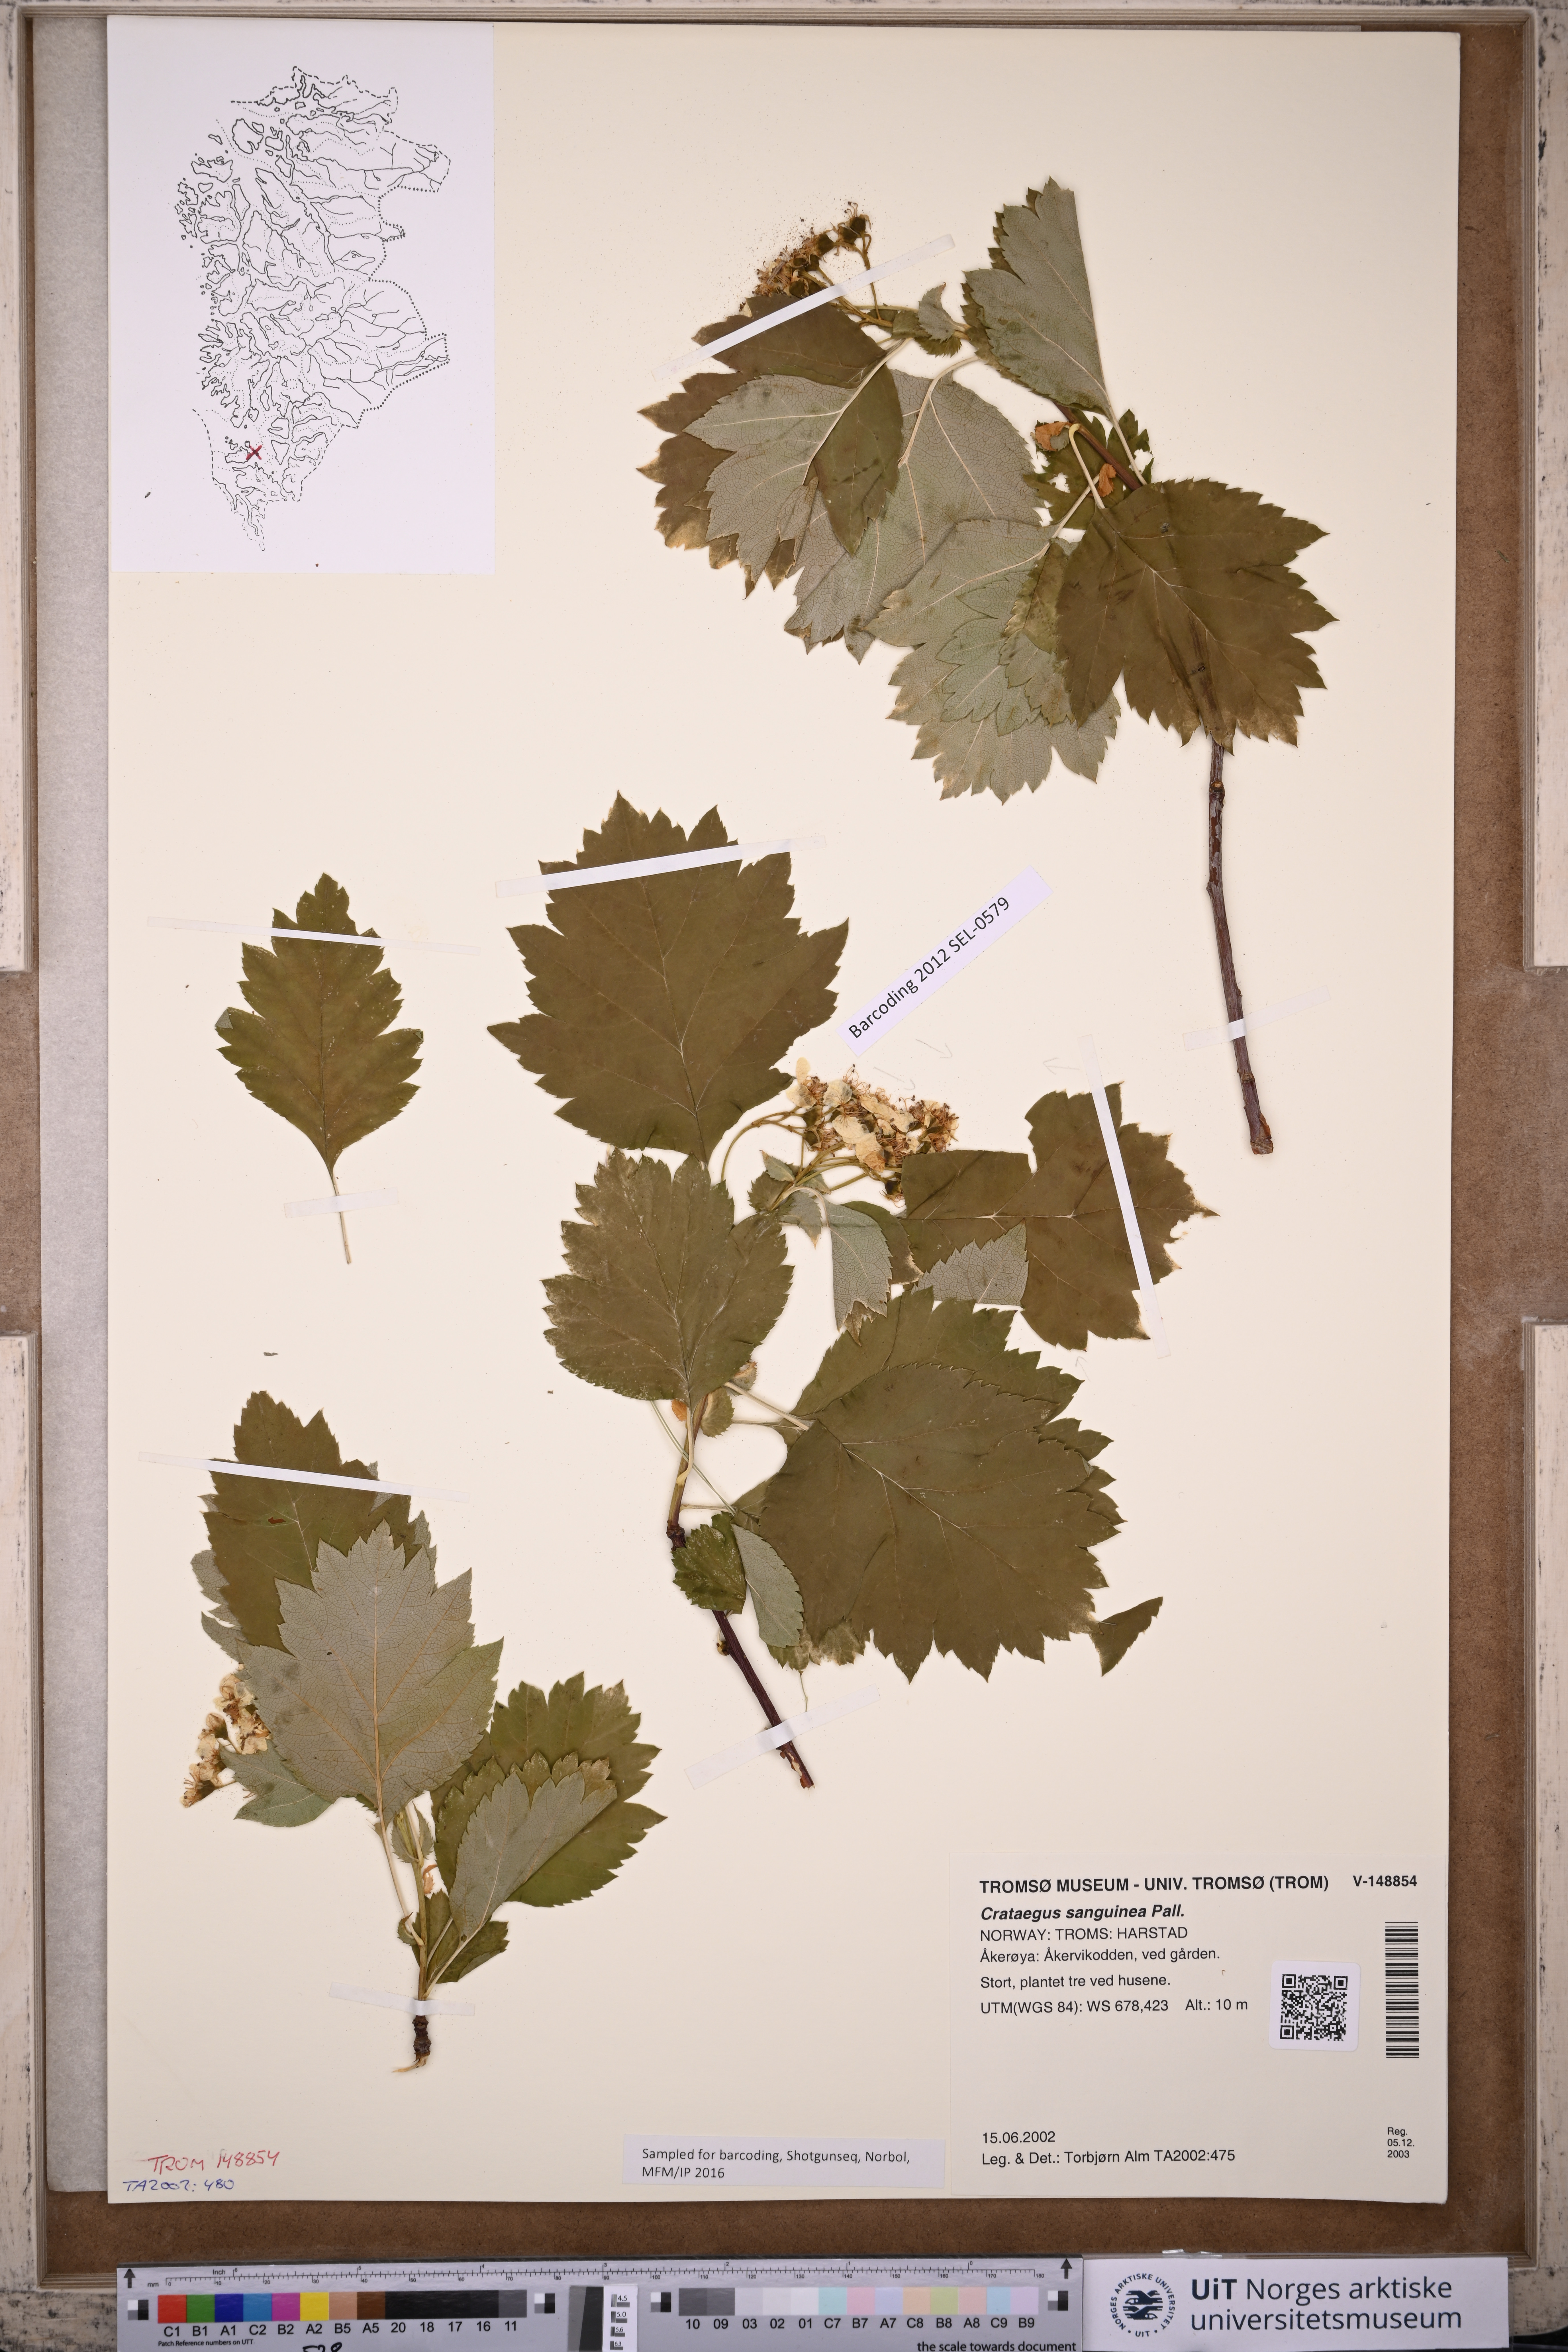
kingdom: Plantae
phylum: Tracheophyta
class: Magnoliopsida
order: Rosales
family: Rosaceae
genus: Crataegus
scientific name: Crataegus sanguinea
